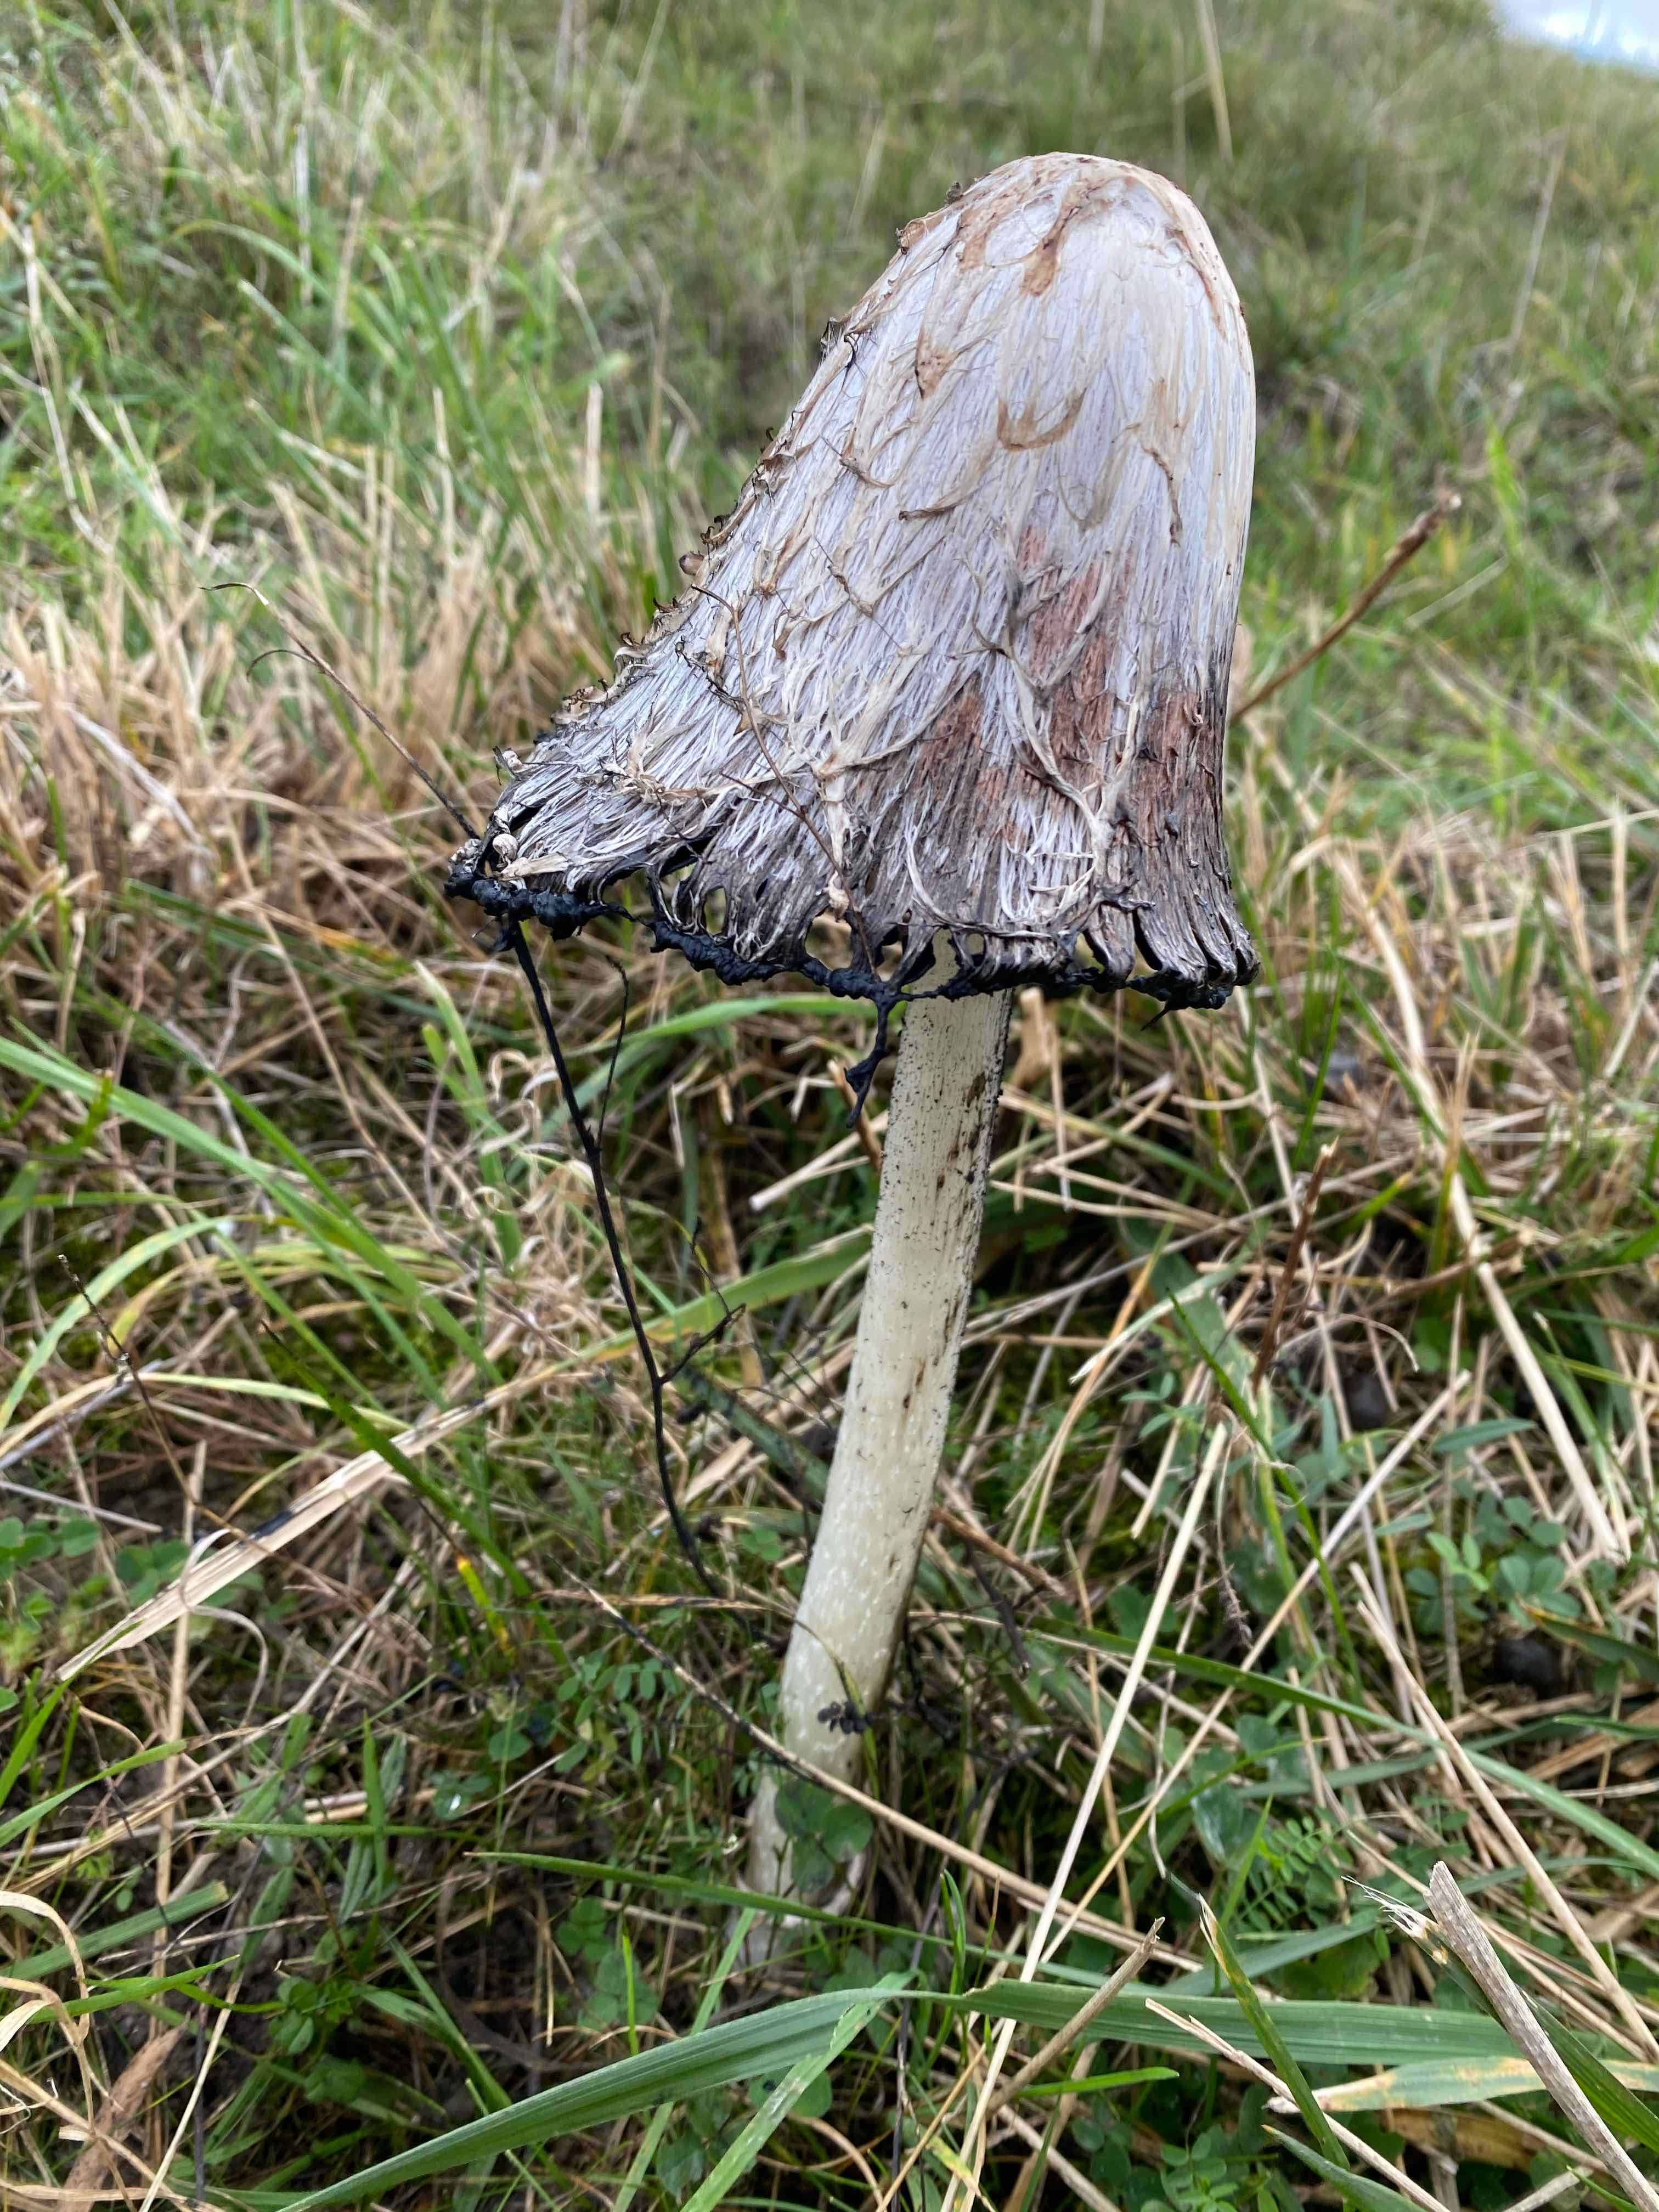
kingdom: Fungi
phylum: Basidiomycota
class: Agaricomycetes
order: Agaricales
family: Agaricaceae
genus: Coprinus
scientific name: Coprinus comatus
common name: stor parykhat
